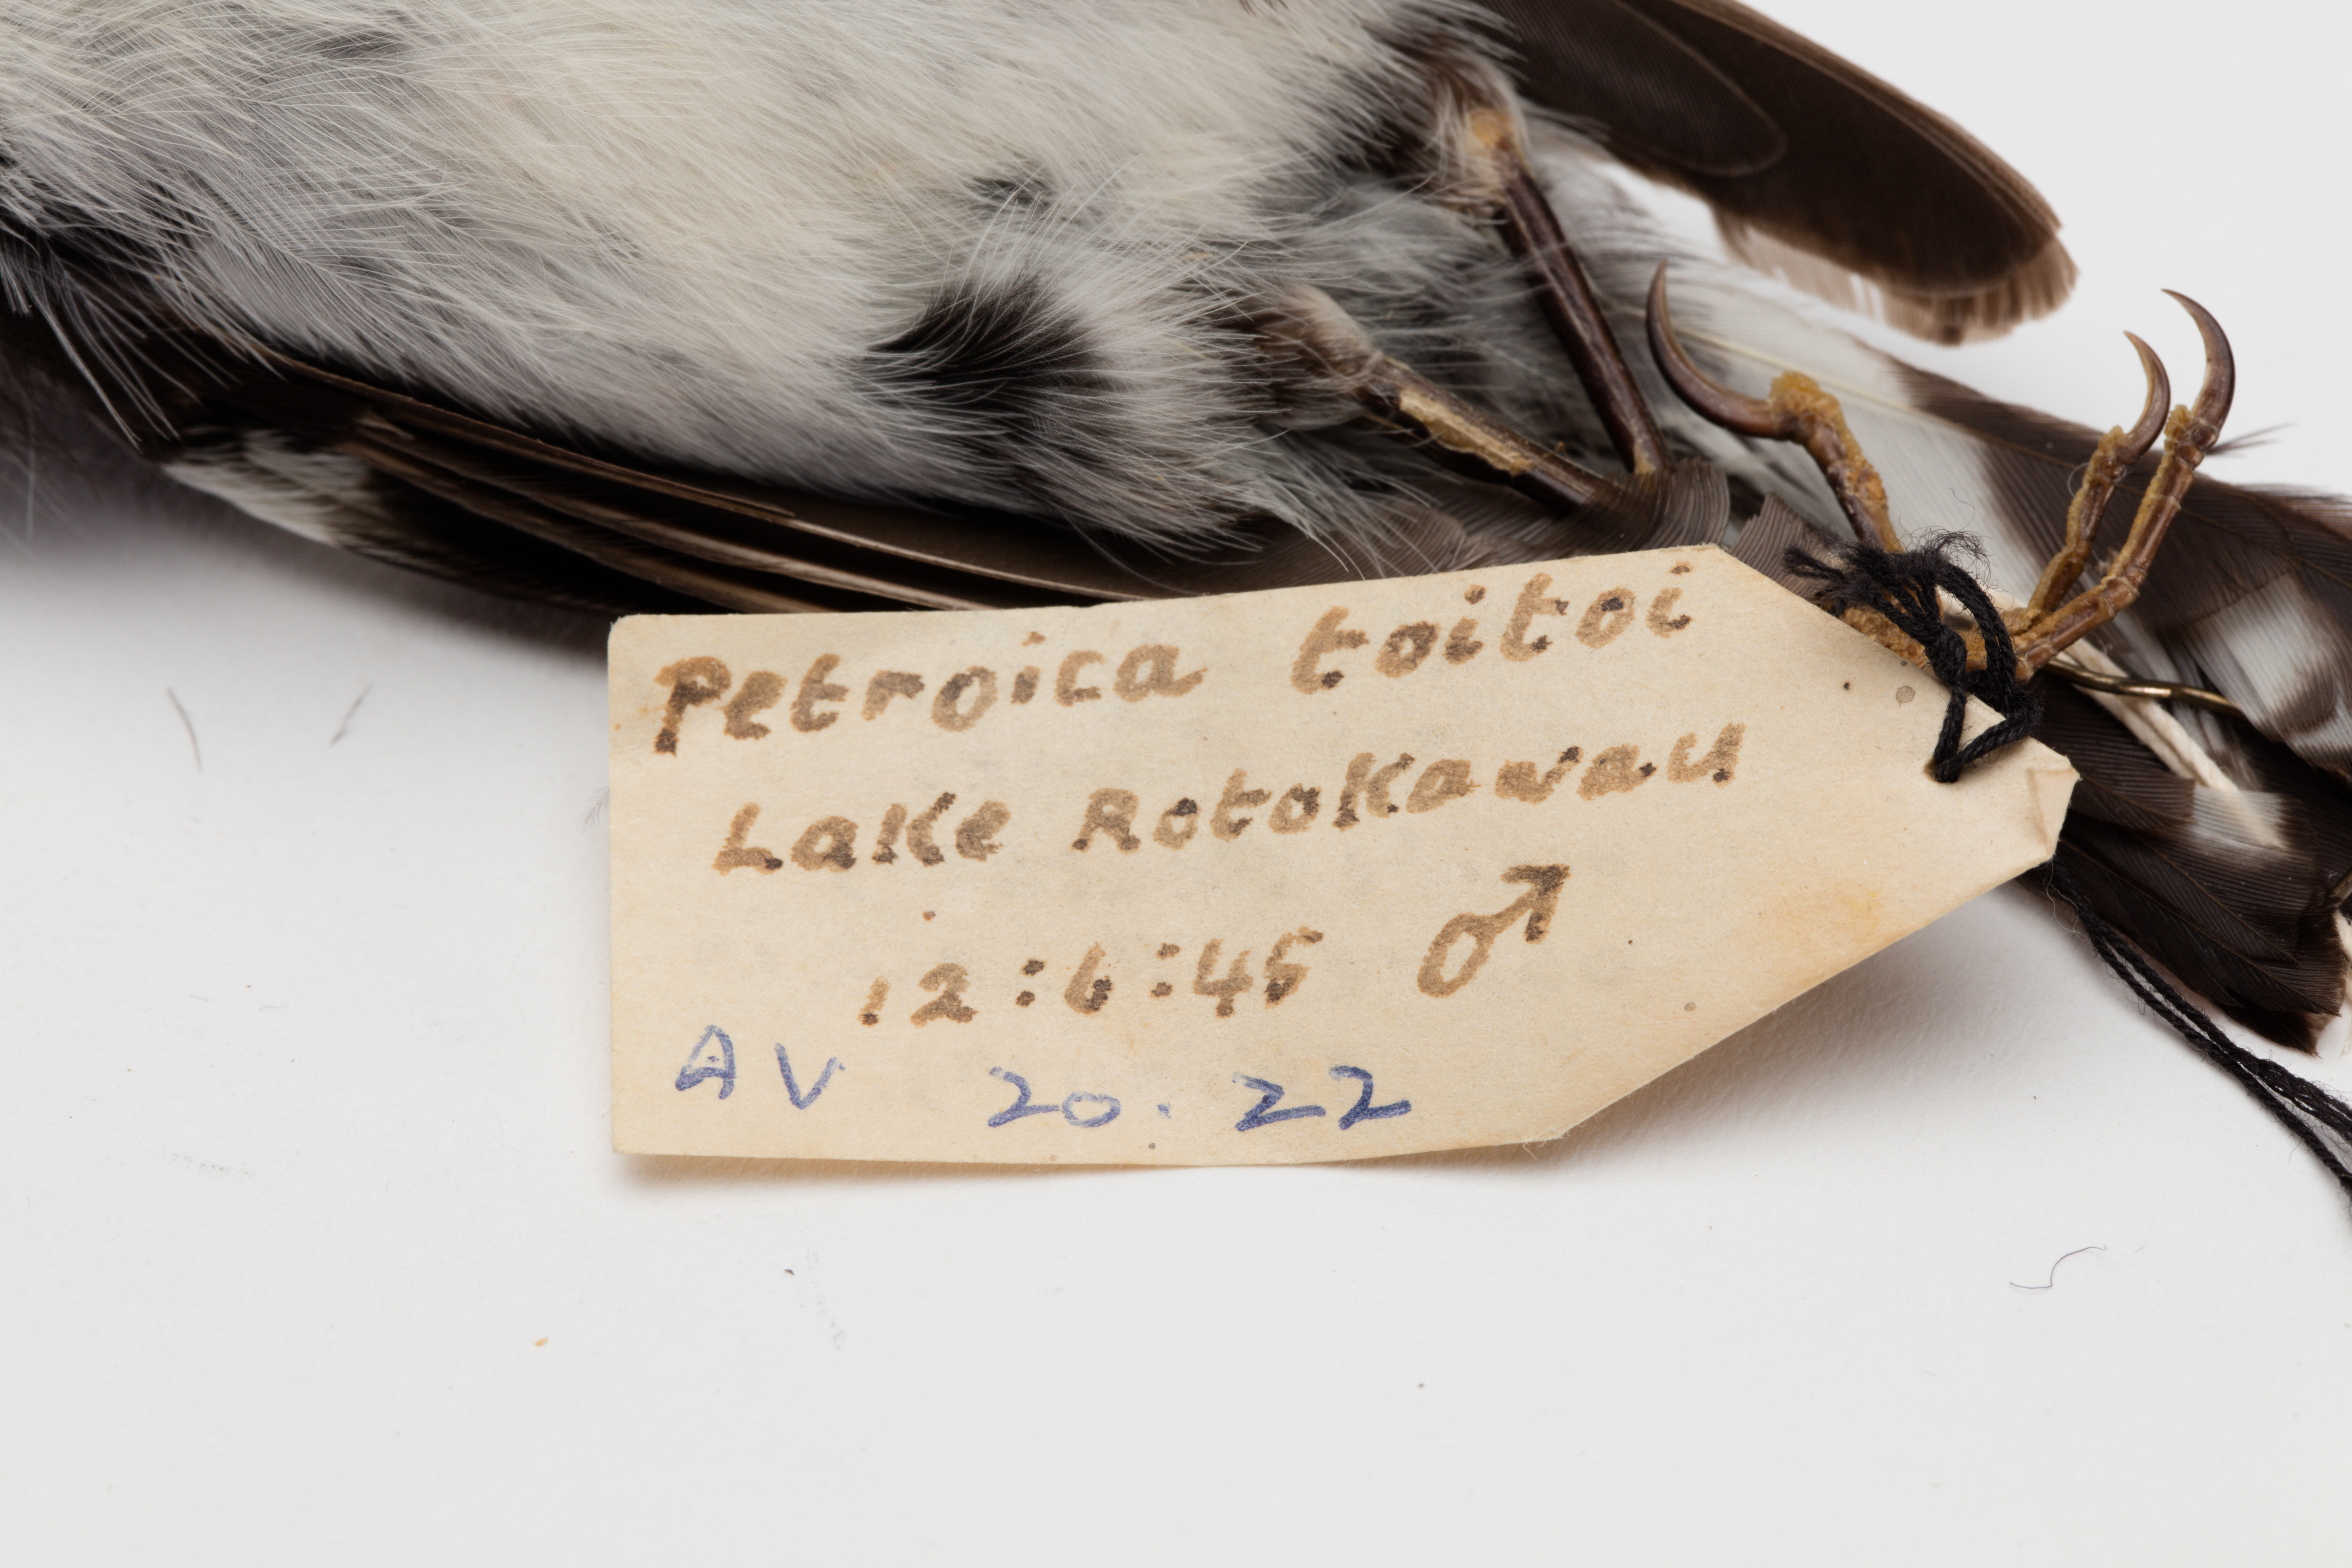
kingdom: Animalia
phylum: Chordata
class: Aves
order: Passeriformes
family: Petroicidae
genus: Petroica
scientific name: Petroica macrocephala
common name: Tomtit
